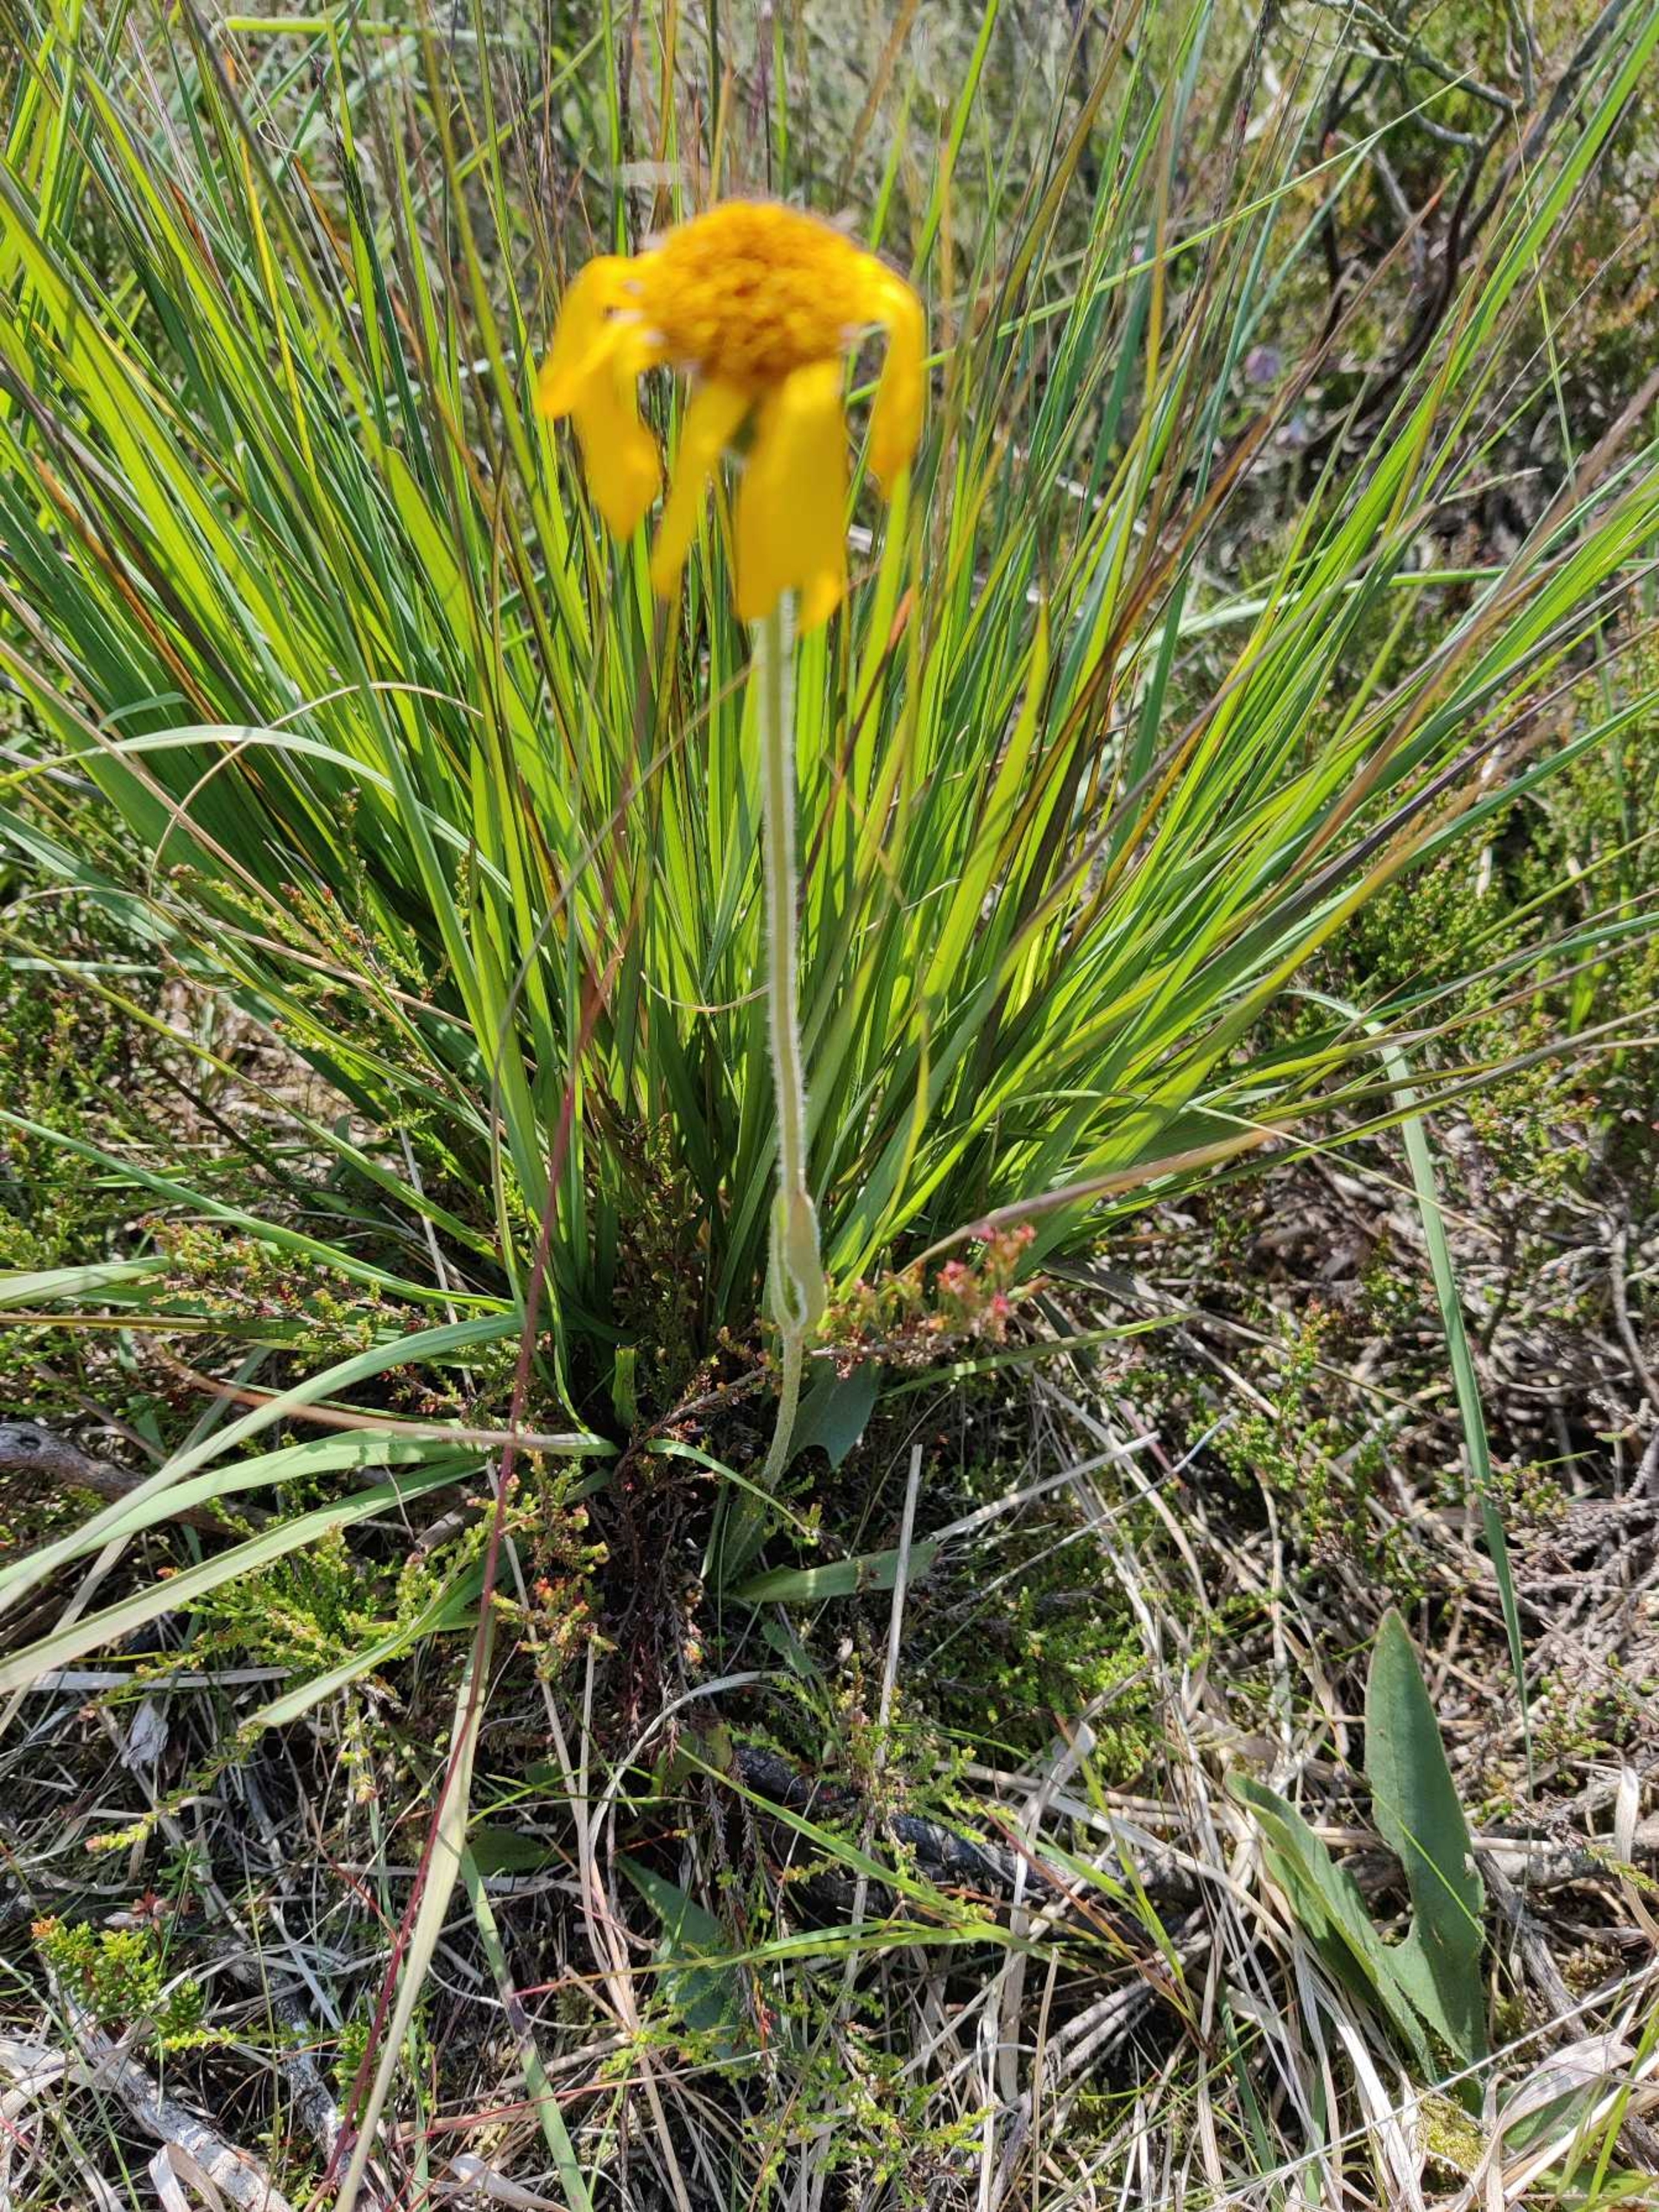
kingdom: Plantae
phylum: Tracheophyta
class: Magnoliopsida
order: Asterales
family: Asteraceae
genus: Arnica
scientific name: Arnica montana
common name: Guldblomme
